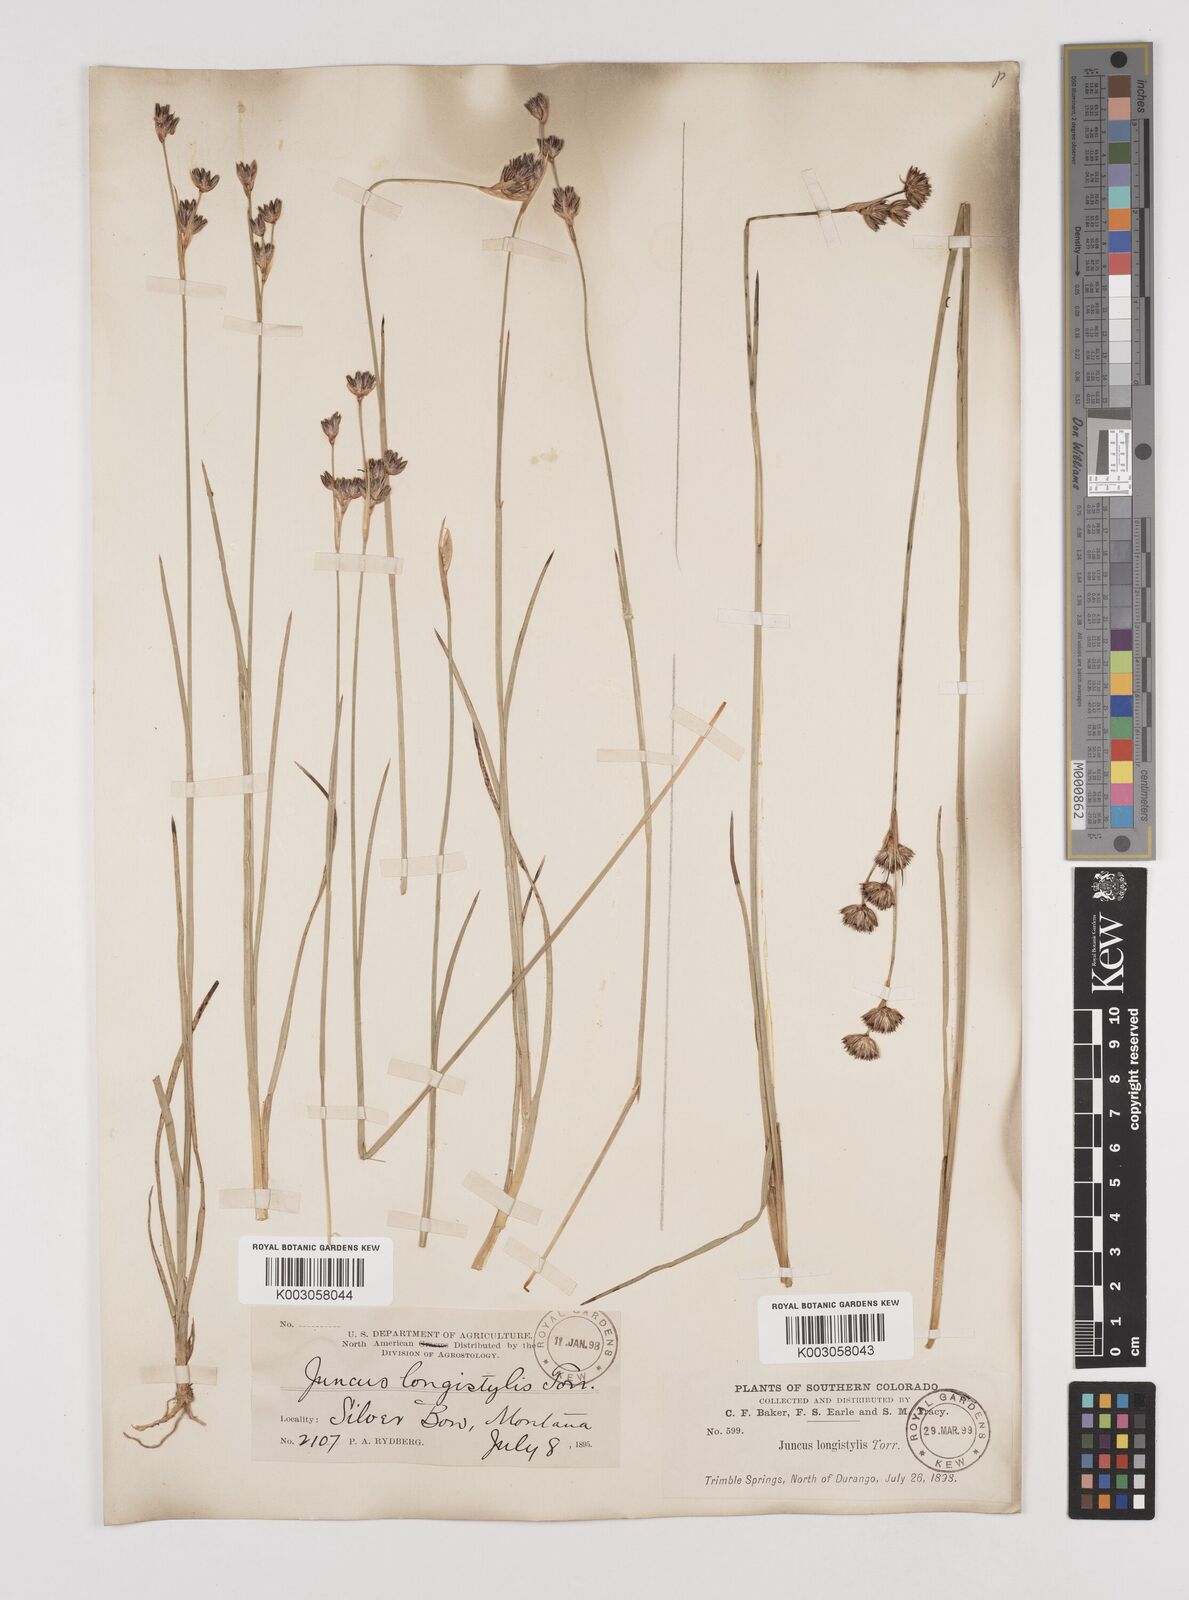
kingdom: Plantae
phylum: Tracheophyta
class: Liliopsida
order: Poales
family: Juncaceae
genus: Juncus
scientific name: Juncus longistylis
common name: Long-style rush
